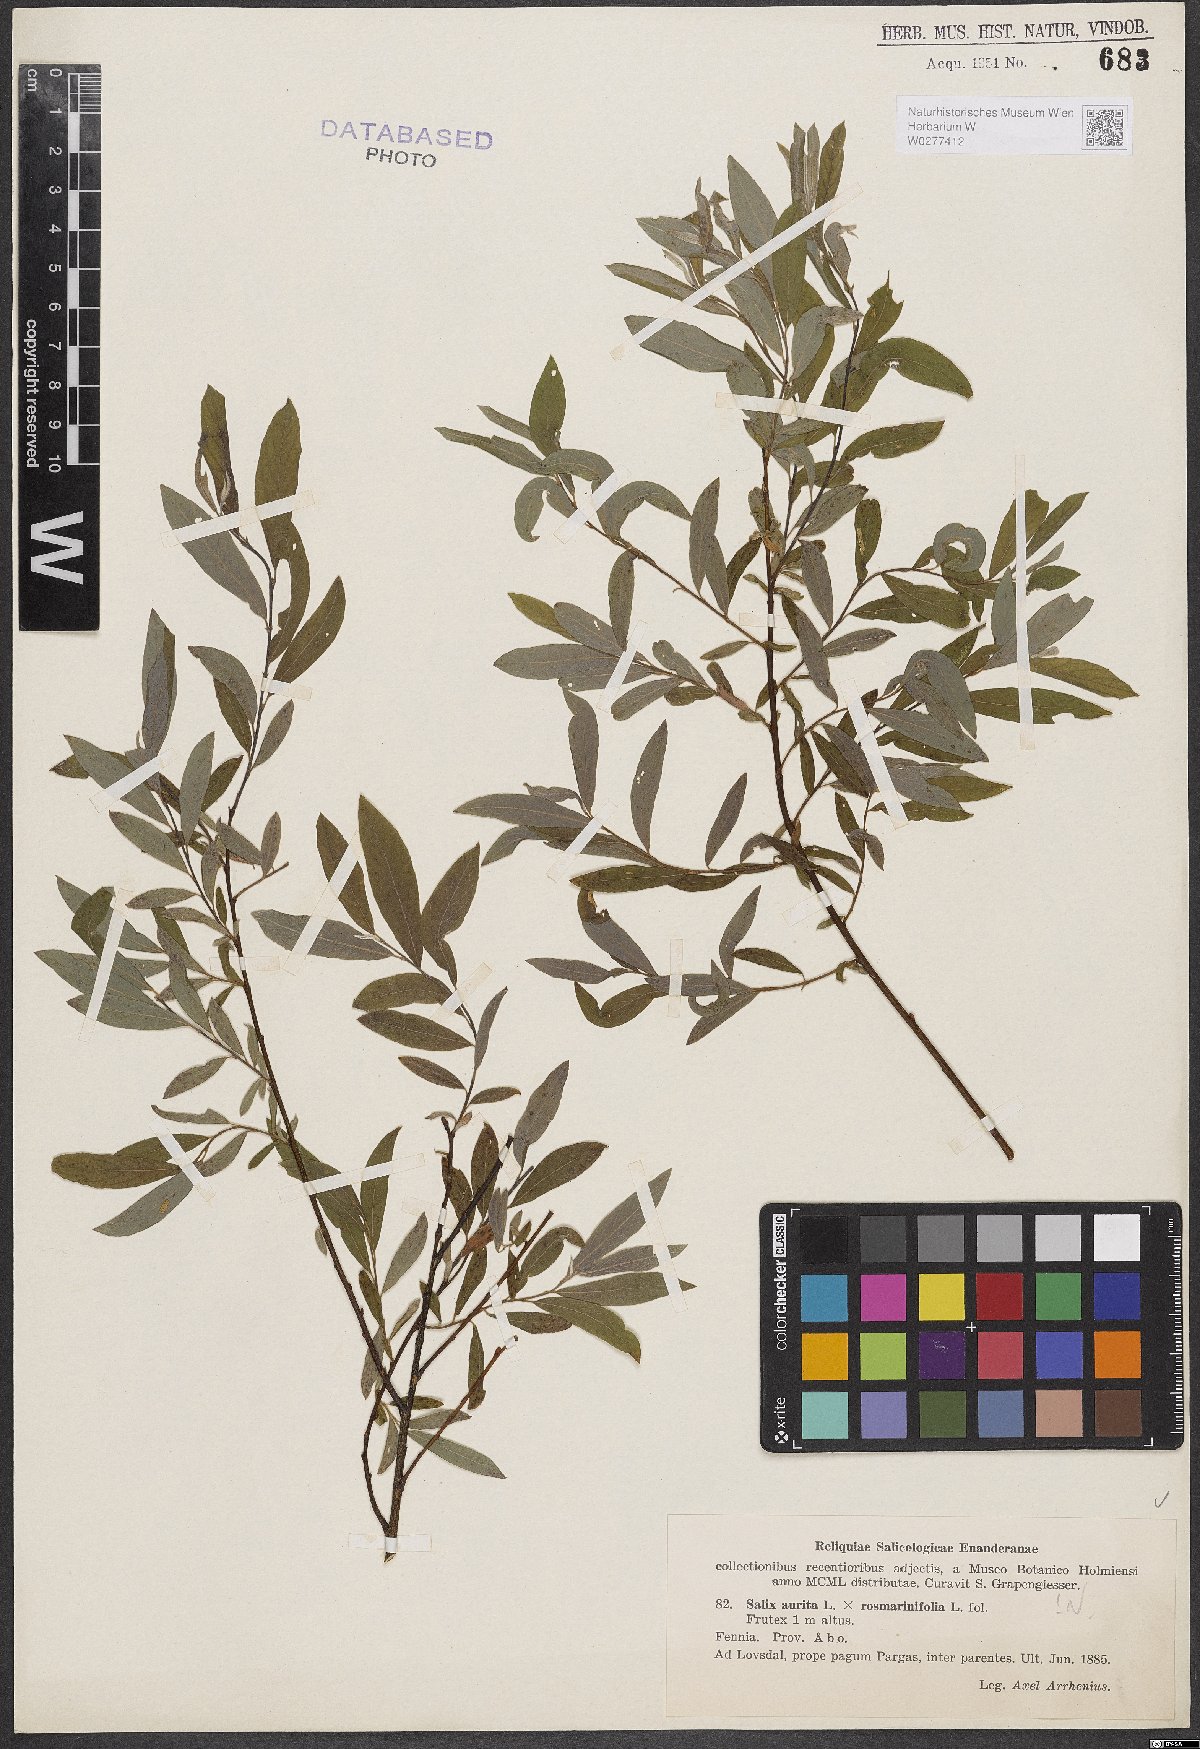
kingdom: Plantae
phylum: Tracheophyta
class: Magnoliopsida
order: Malpighiales
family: Salicaceae
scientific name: Salicaceae
